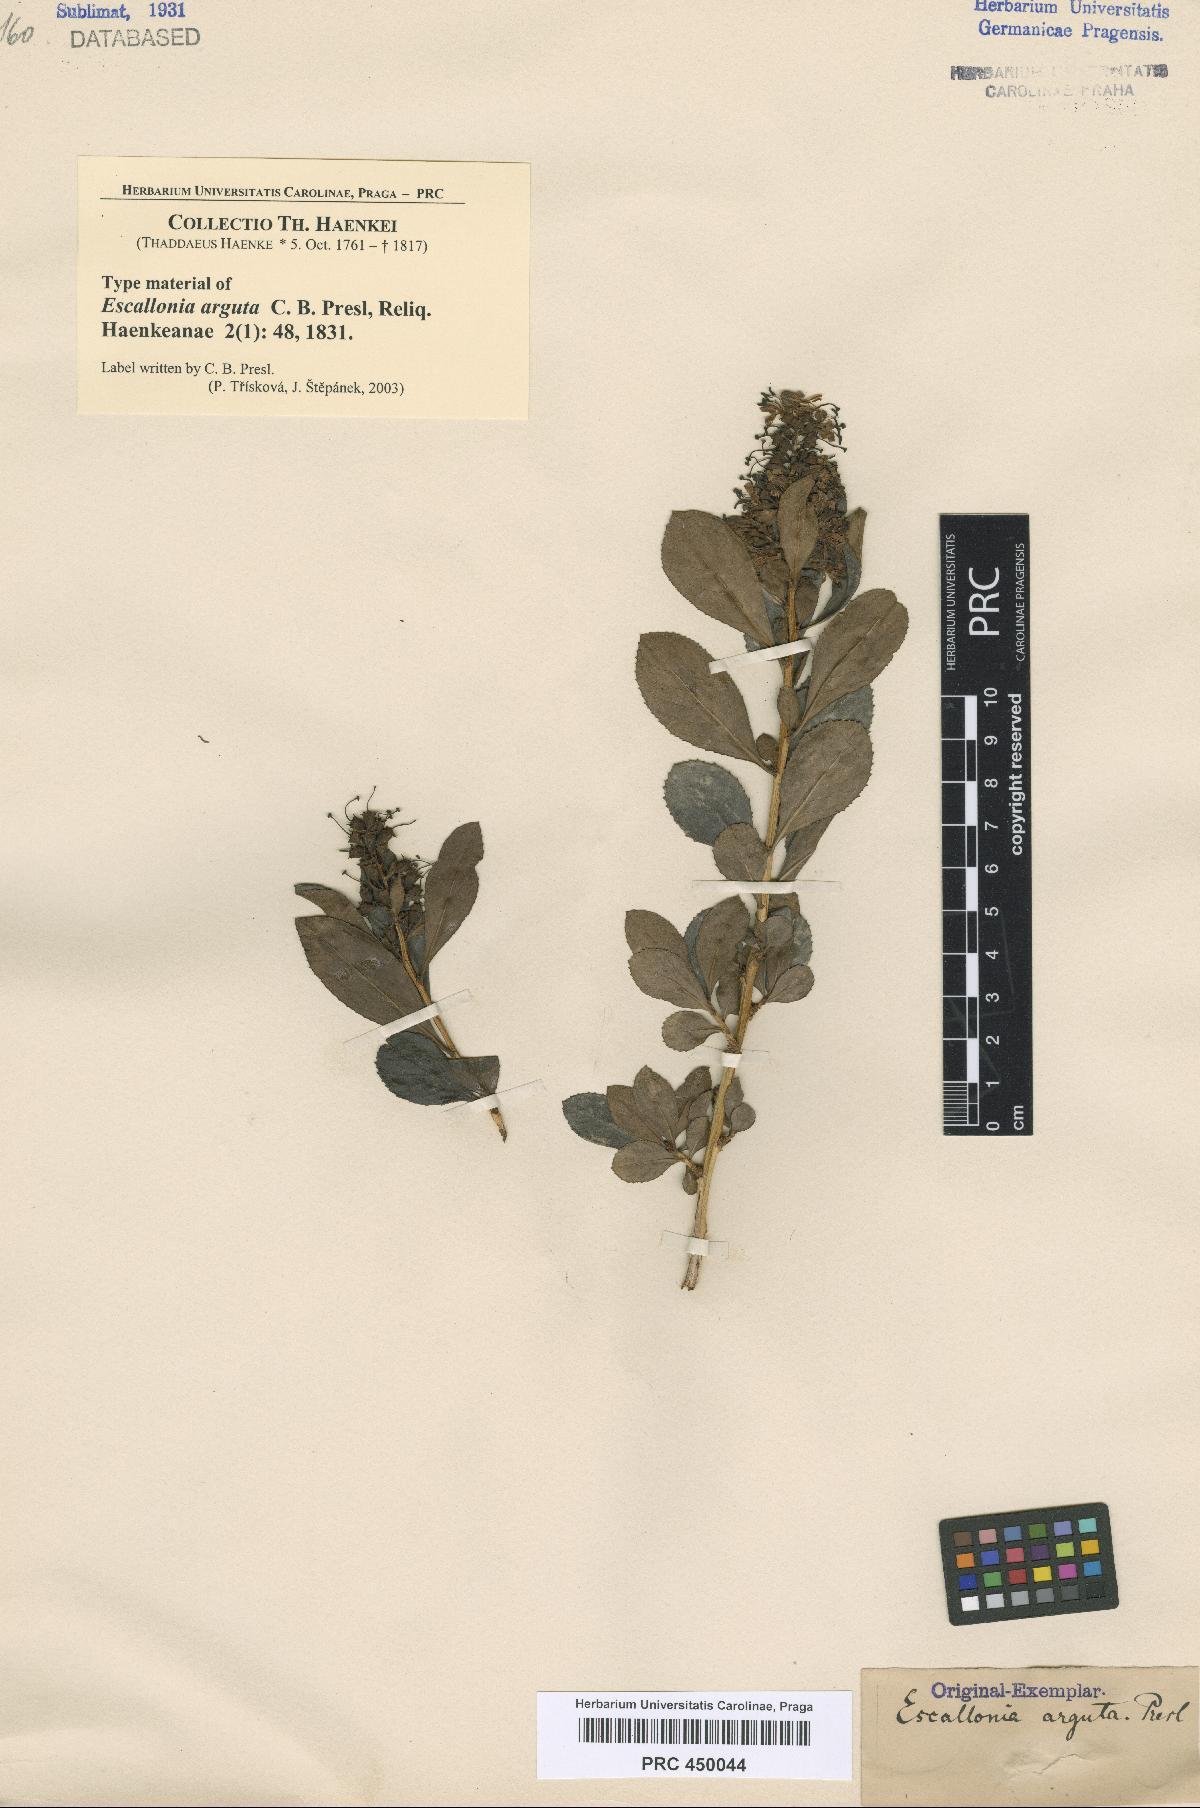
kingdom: Plantae
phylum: Tracheophyta
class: Magnoliopsida
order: Escalloniales
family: Escalloniaceae
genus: Escallonia
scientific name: Escallonia myrtoidea
